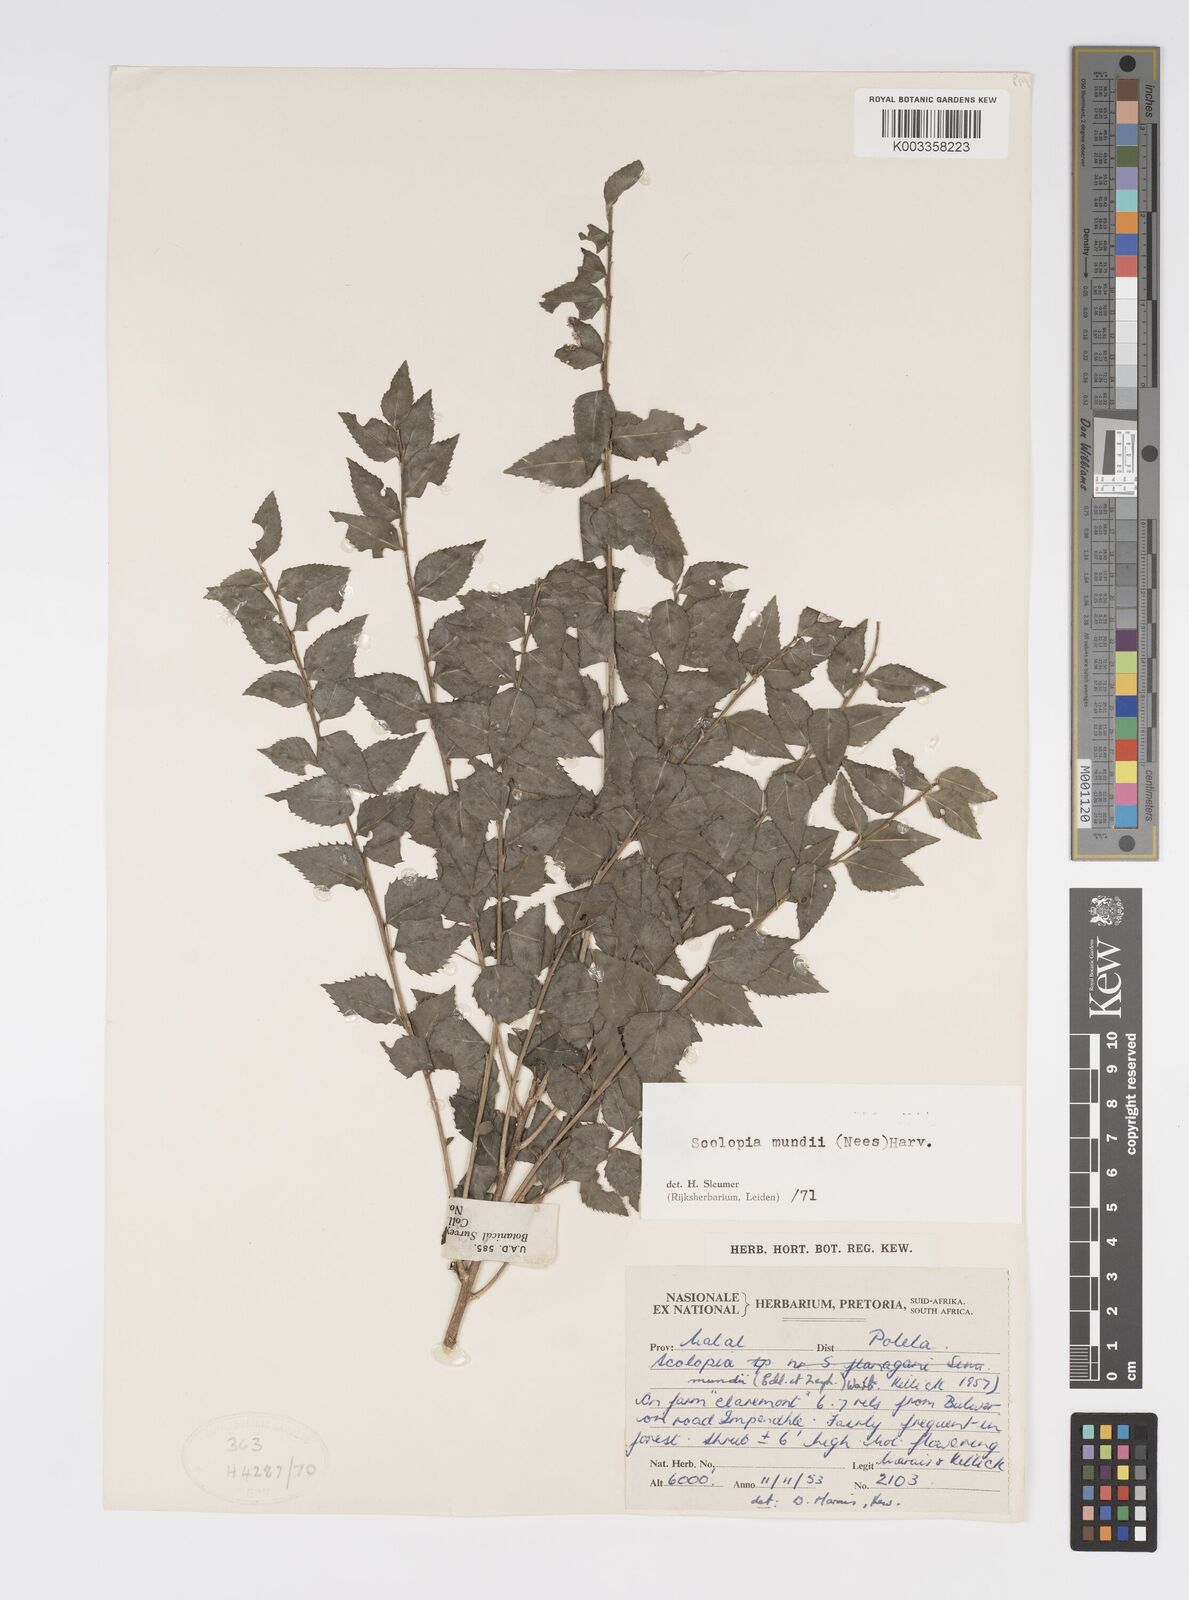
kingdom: Plantae
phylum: Tracheophyta
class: Magnoliopsida
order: Malpighiales
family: Salicaceae
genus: Scolopia
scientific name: Scolopia mundii
